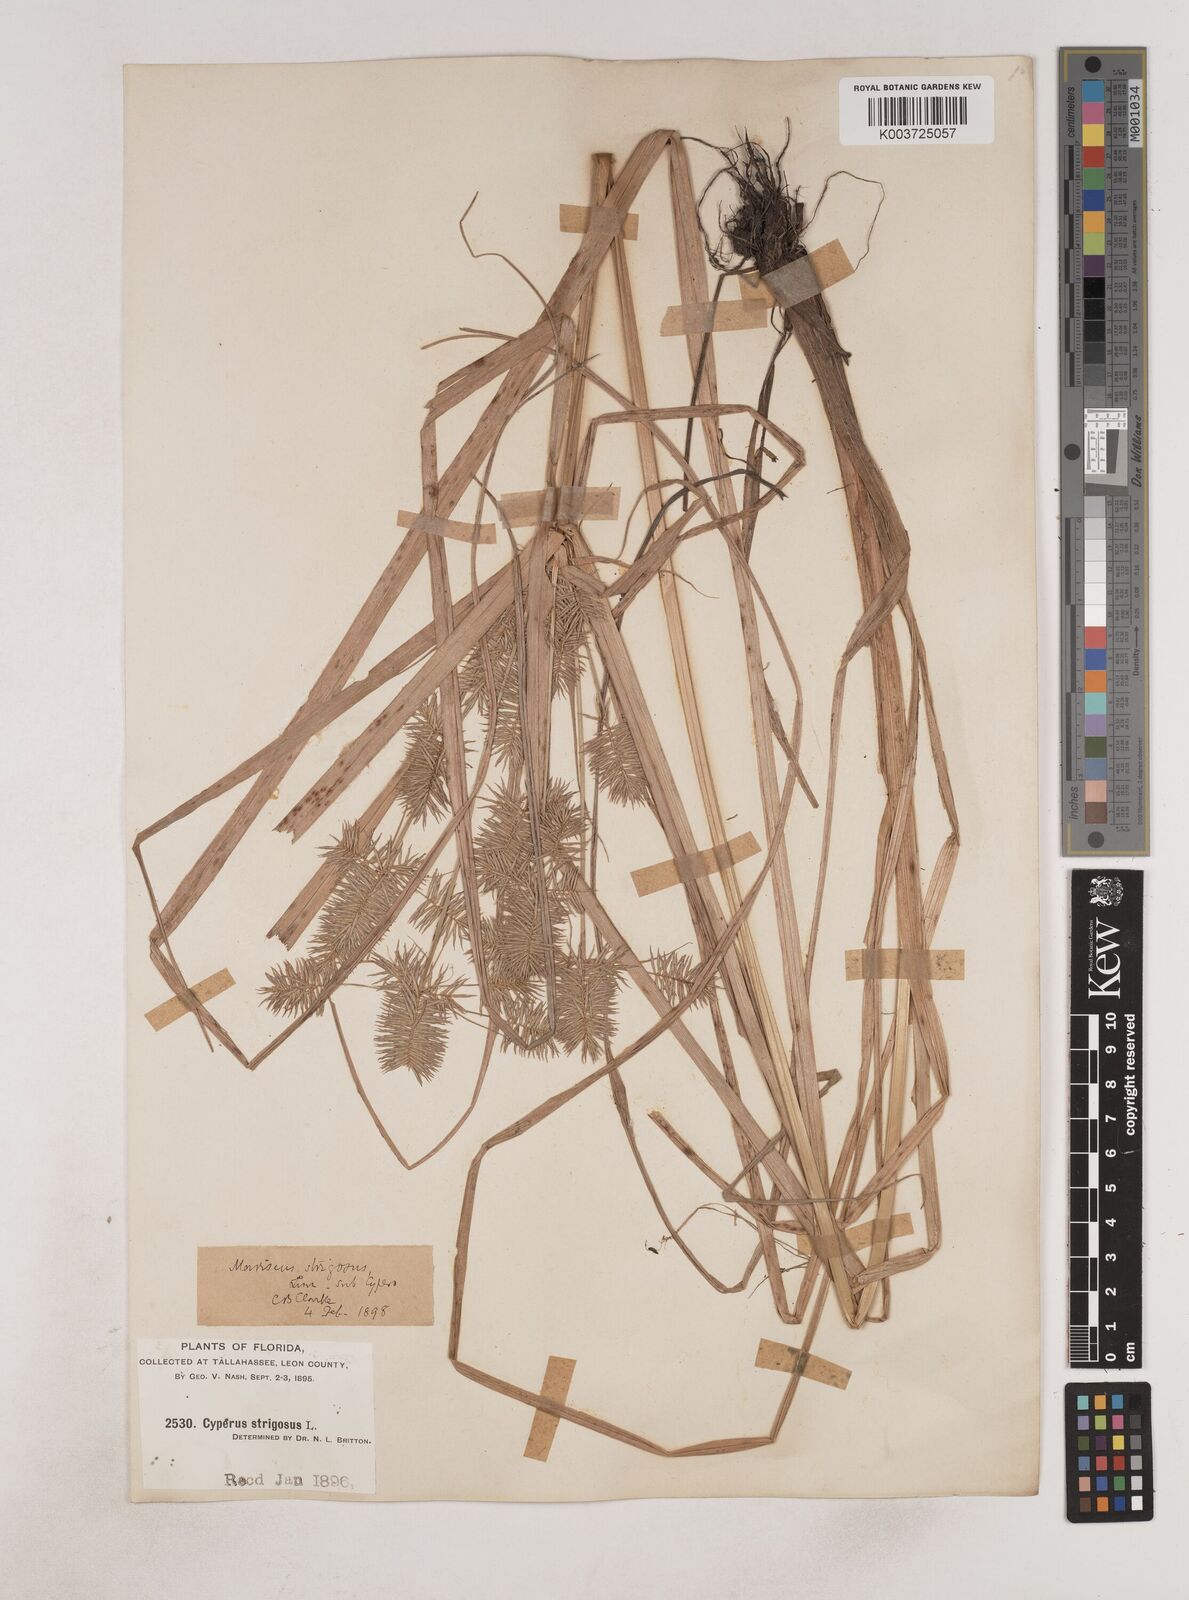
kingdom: Plantae
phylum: Tracheophyta
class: Liliopsida
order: Poales
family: Cyperaceae
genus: Cyperus
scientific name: Cyperus strigosus
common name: False nutsedge
